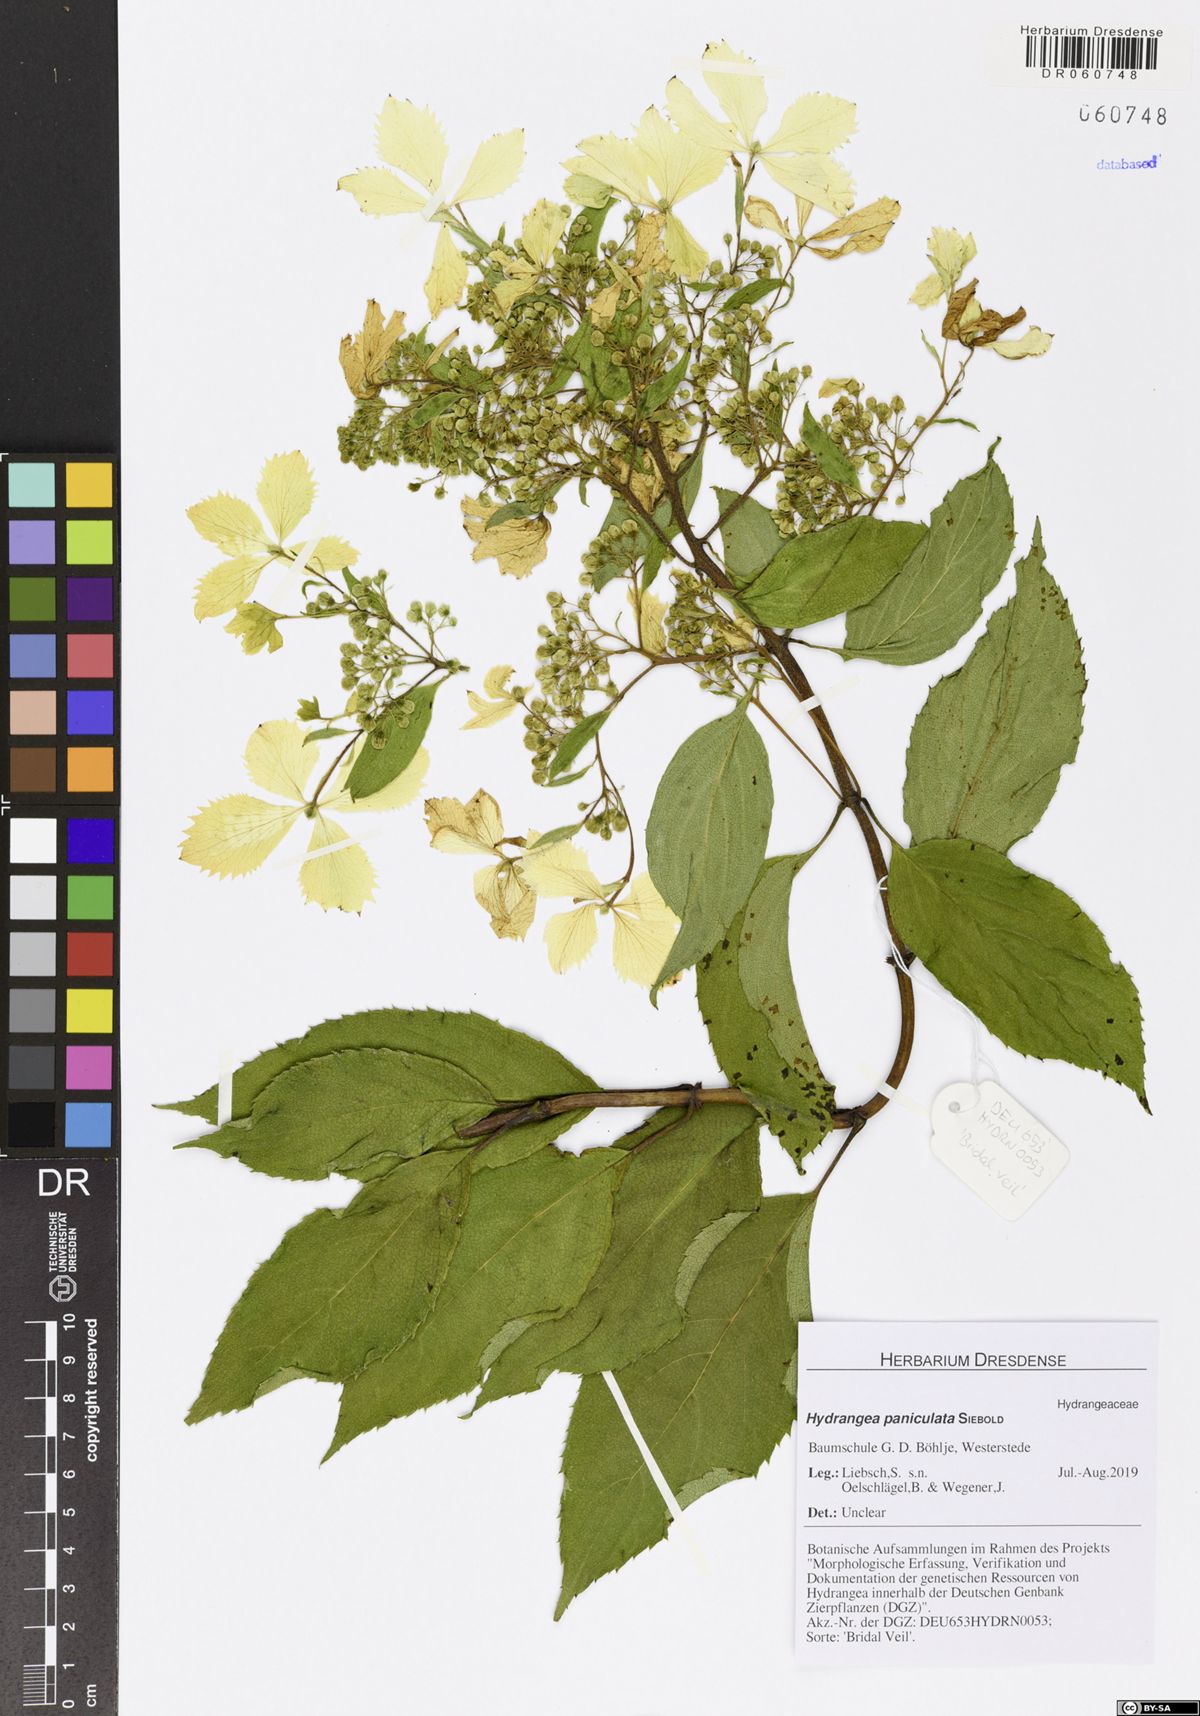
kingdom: Plantae
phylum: Tracheophyta
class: Magnoliopsida
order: Cornales
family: Hydrangeaceae
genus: Hydrangea
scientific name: Hydrangea paniculata
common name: Panicled hydrangea
